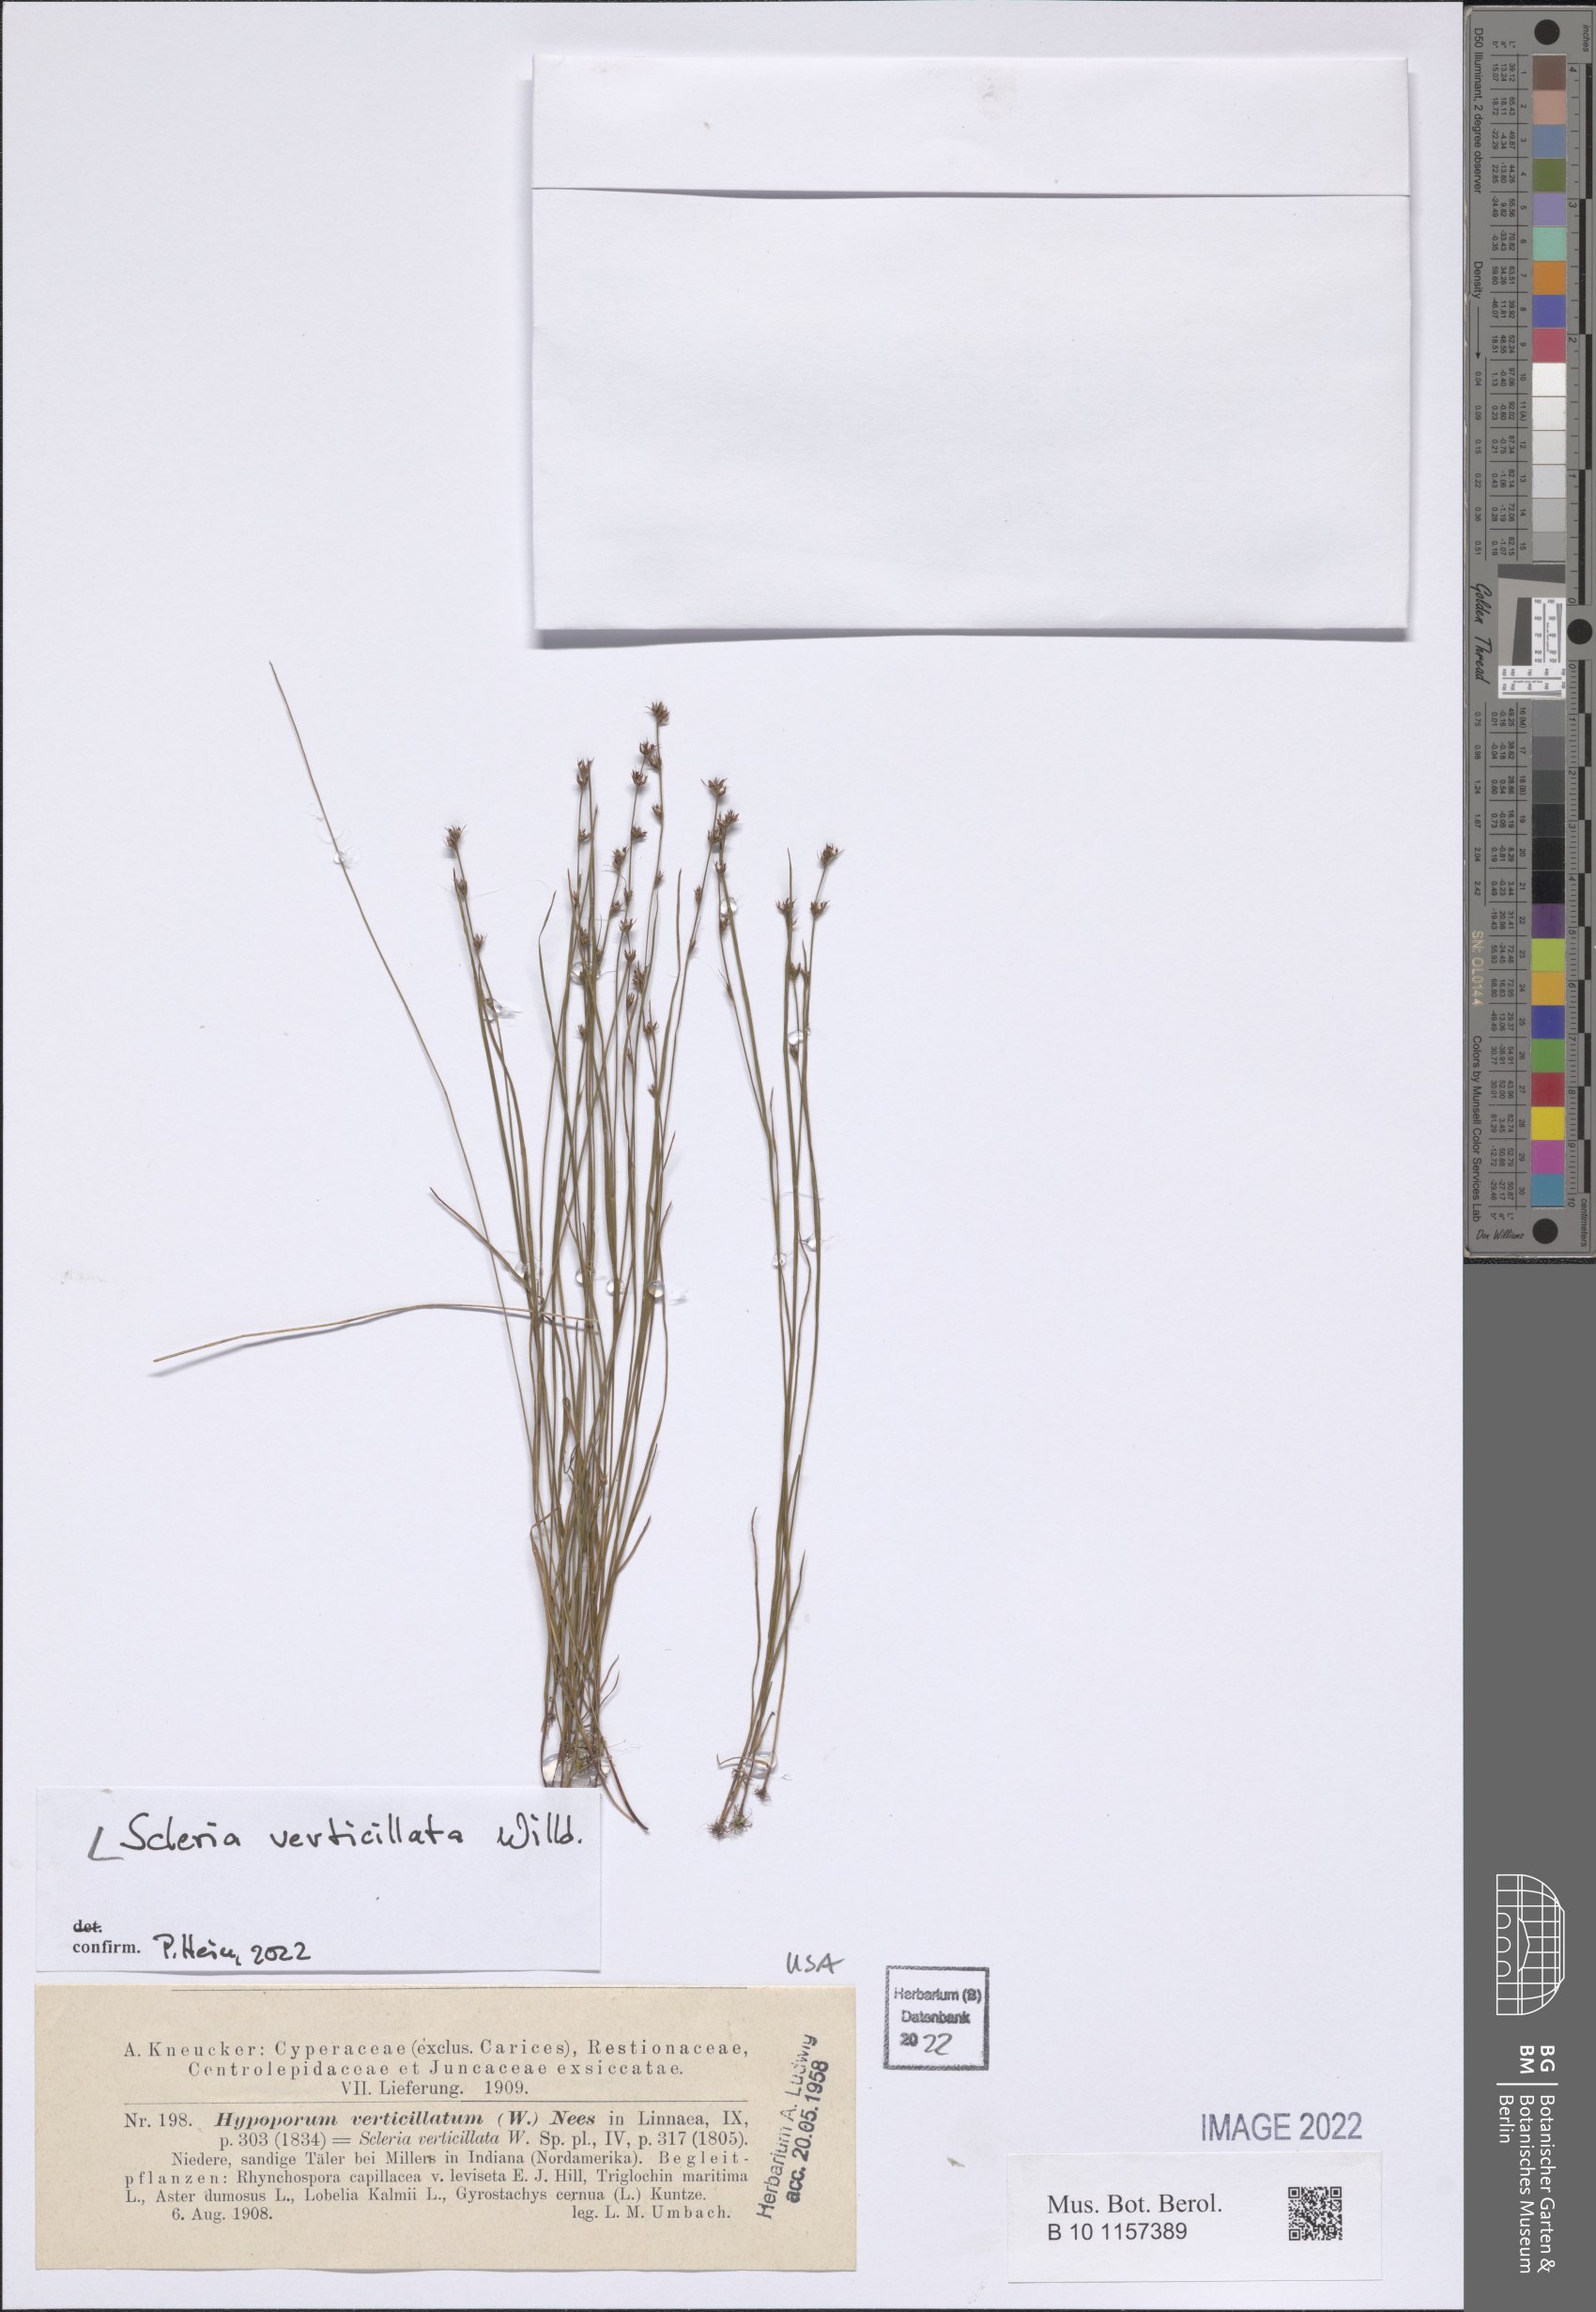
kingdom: Plantae
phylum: Tracheophyta
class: Liliopsida
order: Poales
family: Cyperaceae
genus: Scleria
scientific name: Scleria verticillata
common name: Low nutrush
